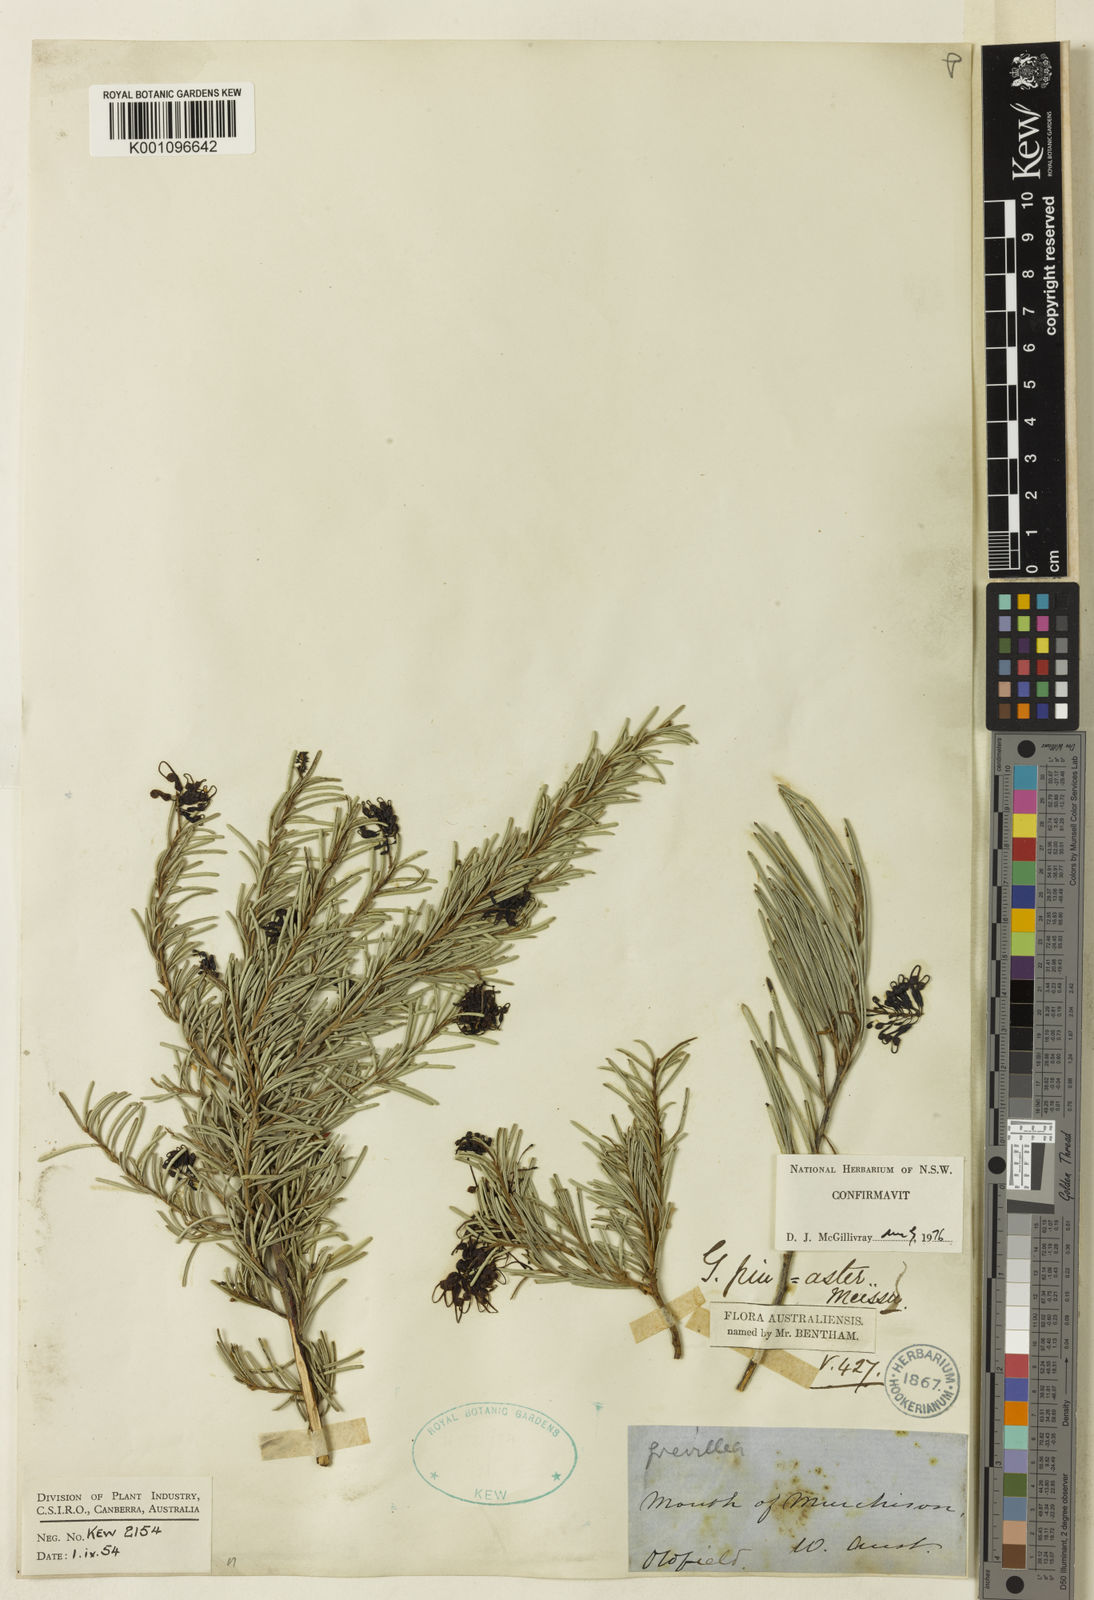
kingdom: Plantae
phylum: Tracheophyta
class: Magnoliopsida
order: Proteales
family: Proteaceae
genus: Grevillea
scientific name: Grevillea pinaster
